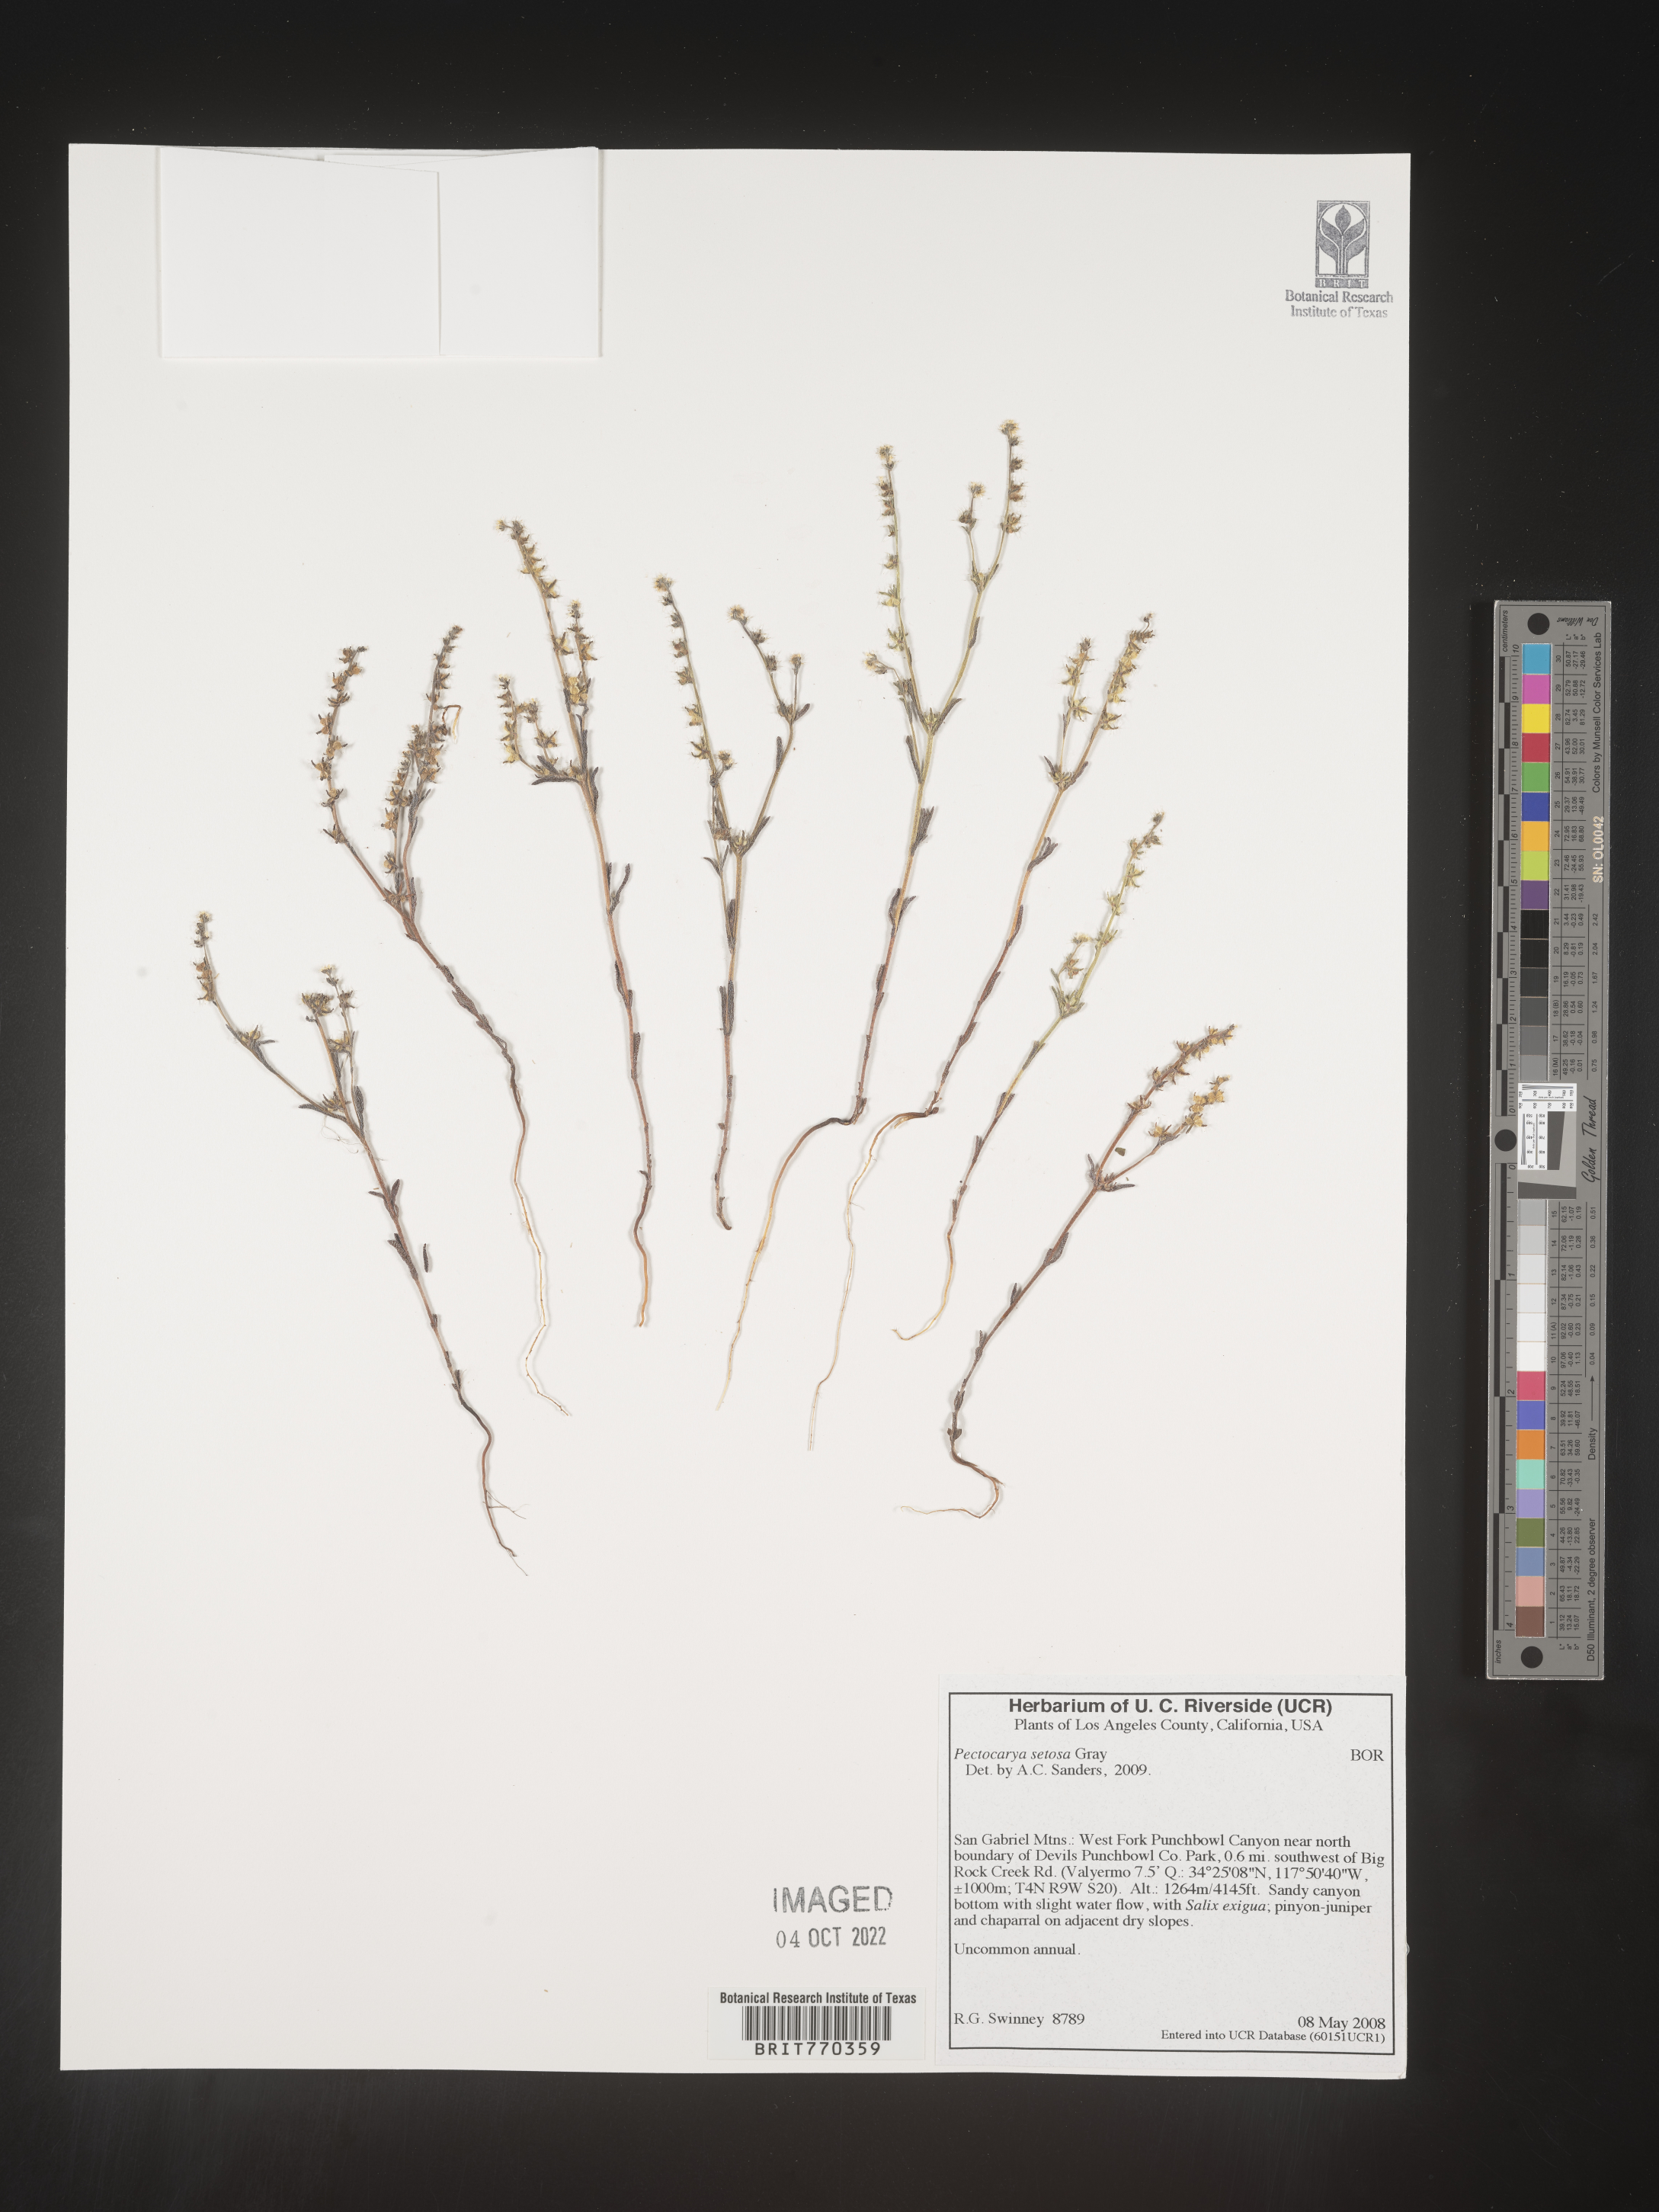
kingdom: Plantae
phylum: Tracheophyta
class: Magnoliopsida
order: Boraginales
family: Boraginaceae
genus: Pectocarya
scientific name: Pectocarya
